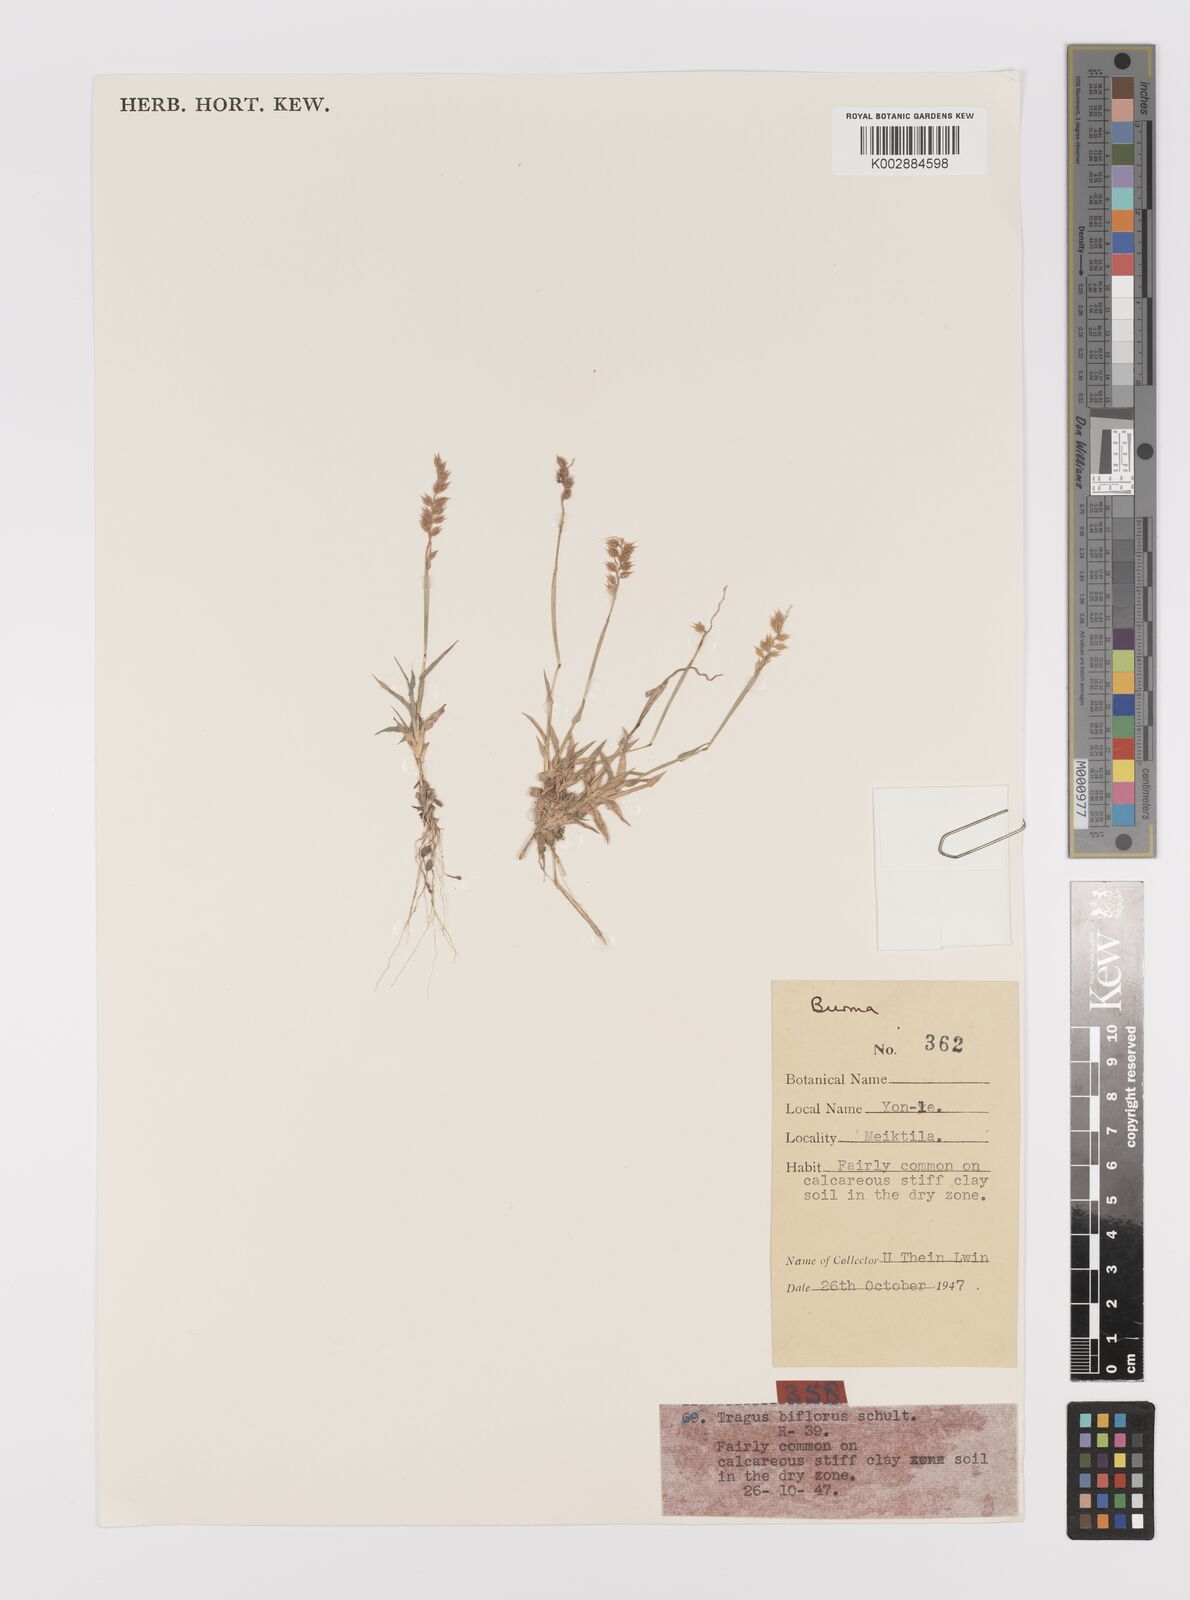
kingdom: Plantae
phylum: Tracheophyta
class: Liliopsida
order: Poales
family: Poaceae
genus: Tragus
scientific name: Tragus mongolorum
